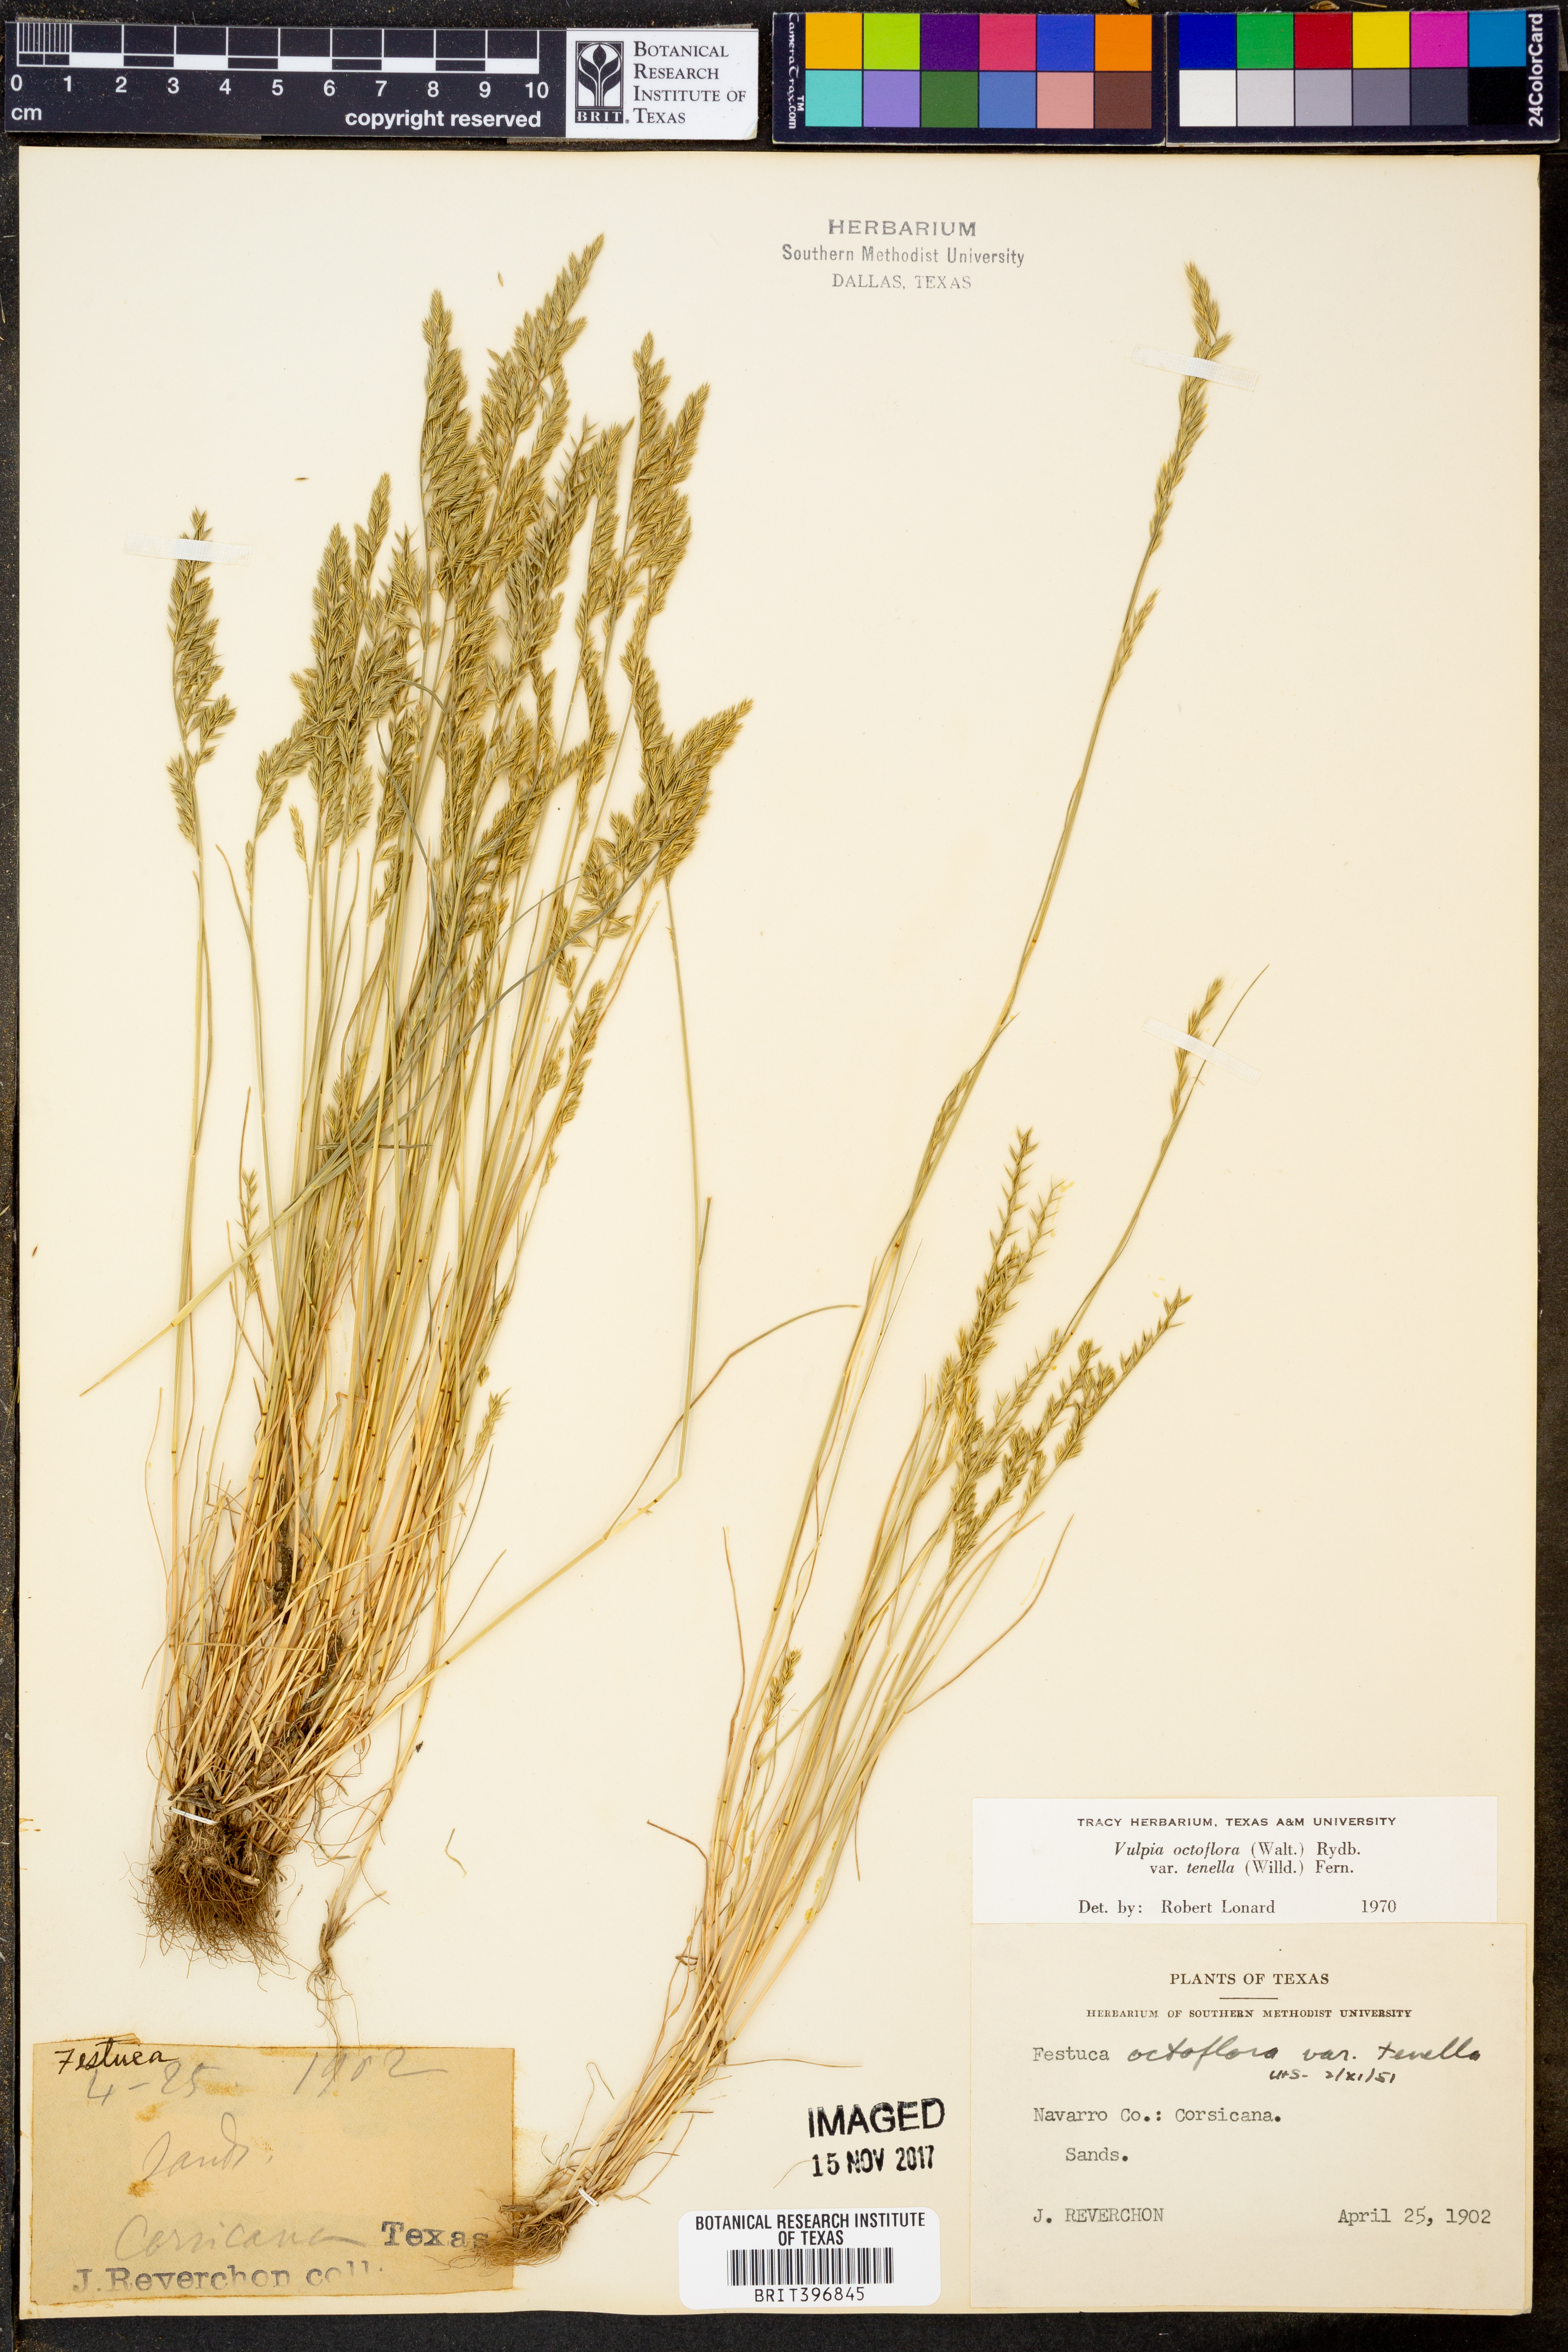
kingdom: Plantae
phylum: Tracheophyta
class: Liliopsida
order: Poales
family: Poaceae
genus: Festuca
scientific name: Festuca octoflora
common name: Sixweeks grass
